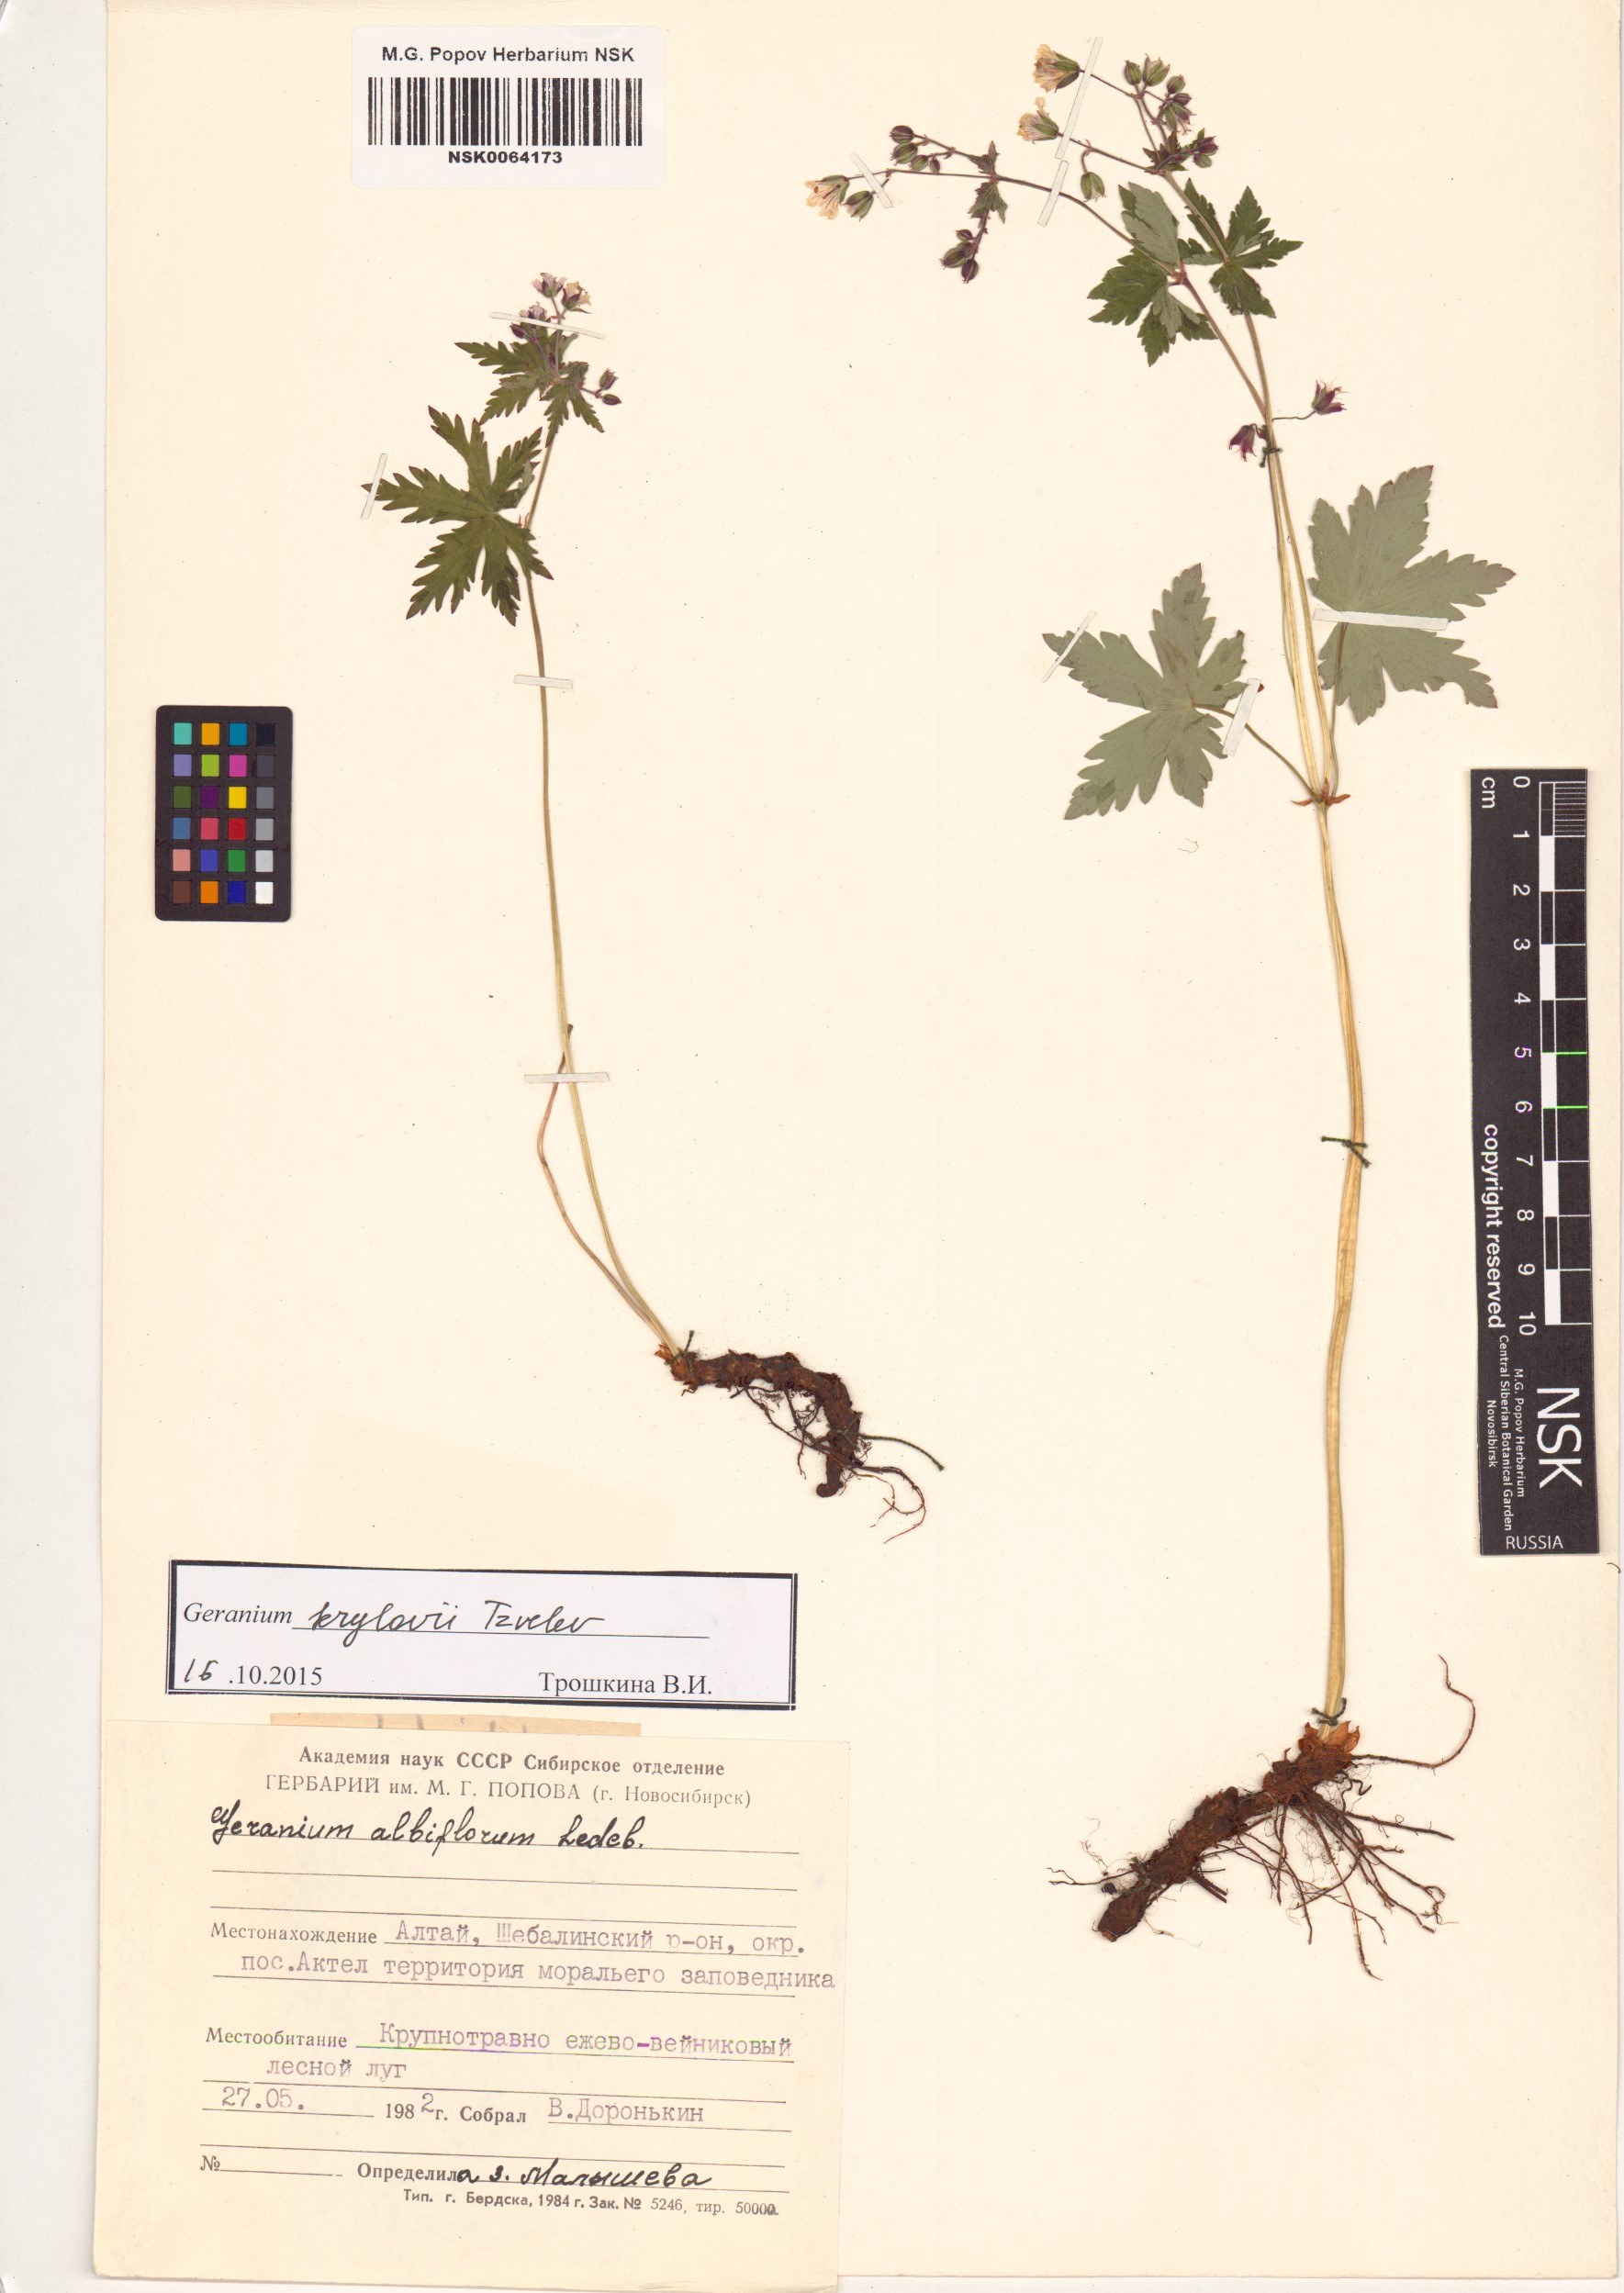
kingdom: Plantae
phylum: Tracheophyta
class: Magnoliopsida
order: Geraniales
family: Geraniaceae
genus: Geranium
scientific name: Geranium sylvaticum
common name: Wood crane's-bill
